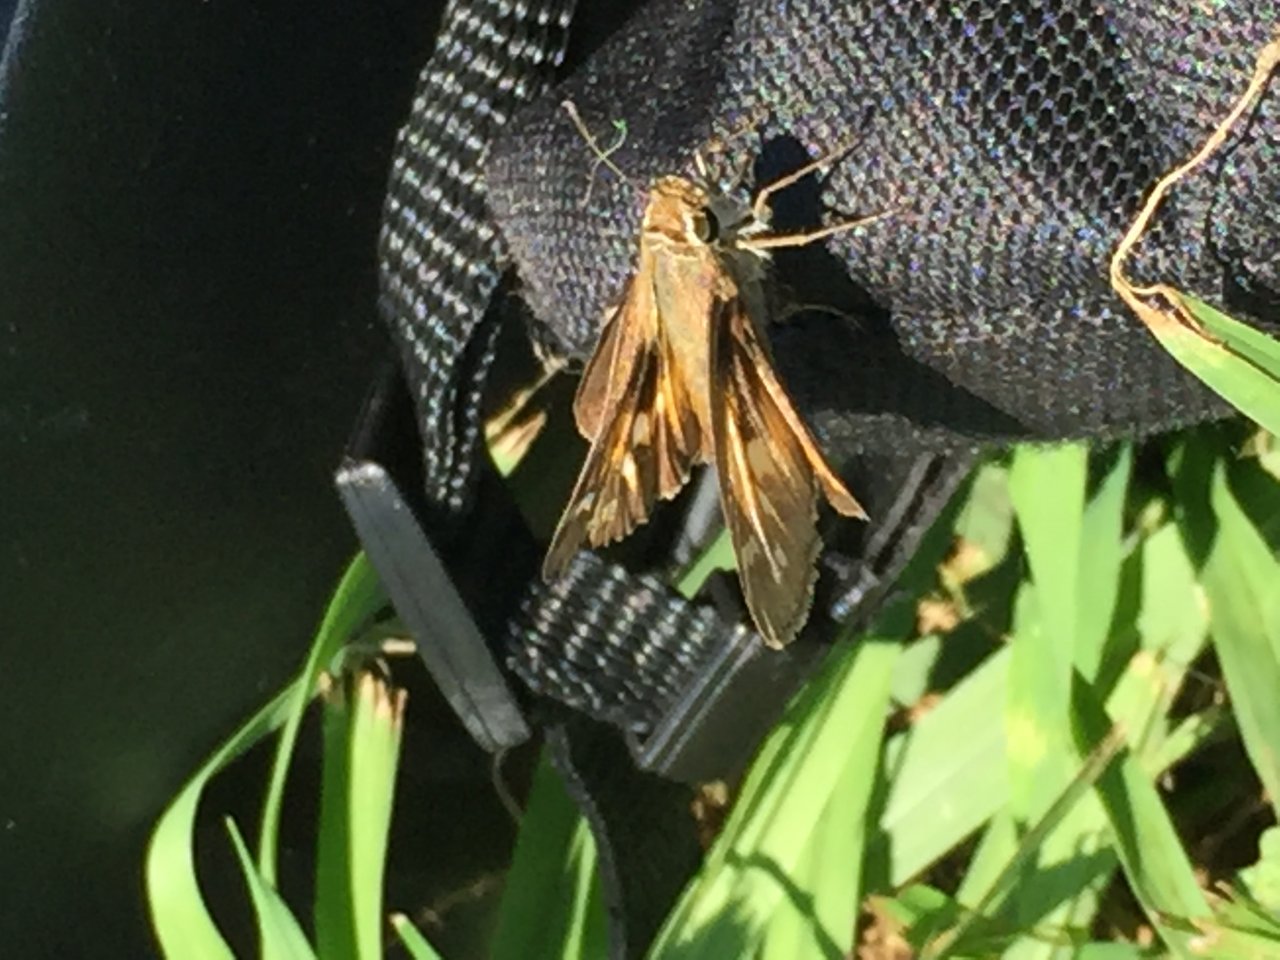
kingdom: Animalia
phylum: Arthropoda
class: Insecta
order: Lepidoptera
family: Hesperiidae
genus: Atalopedes
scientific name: Atalopedes campestris
